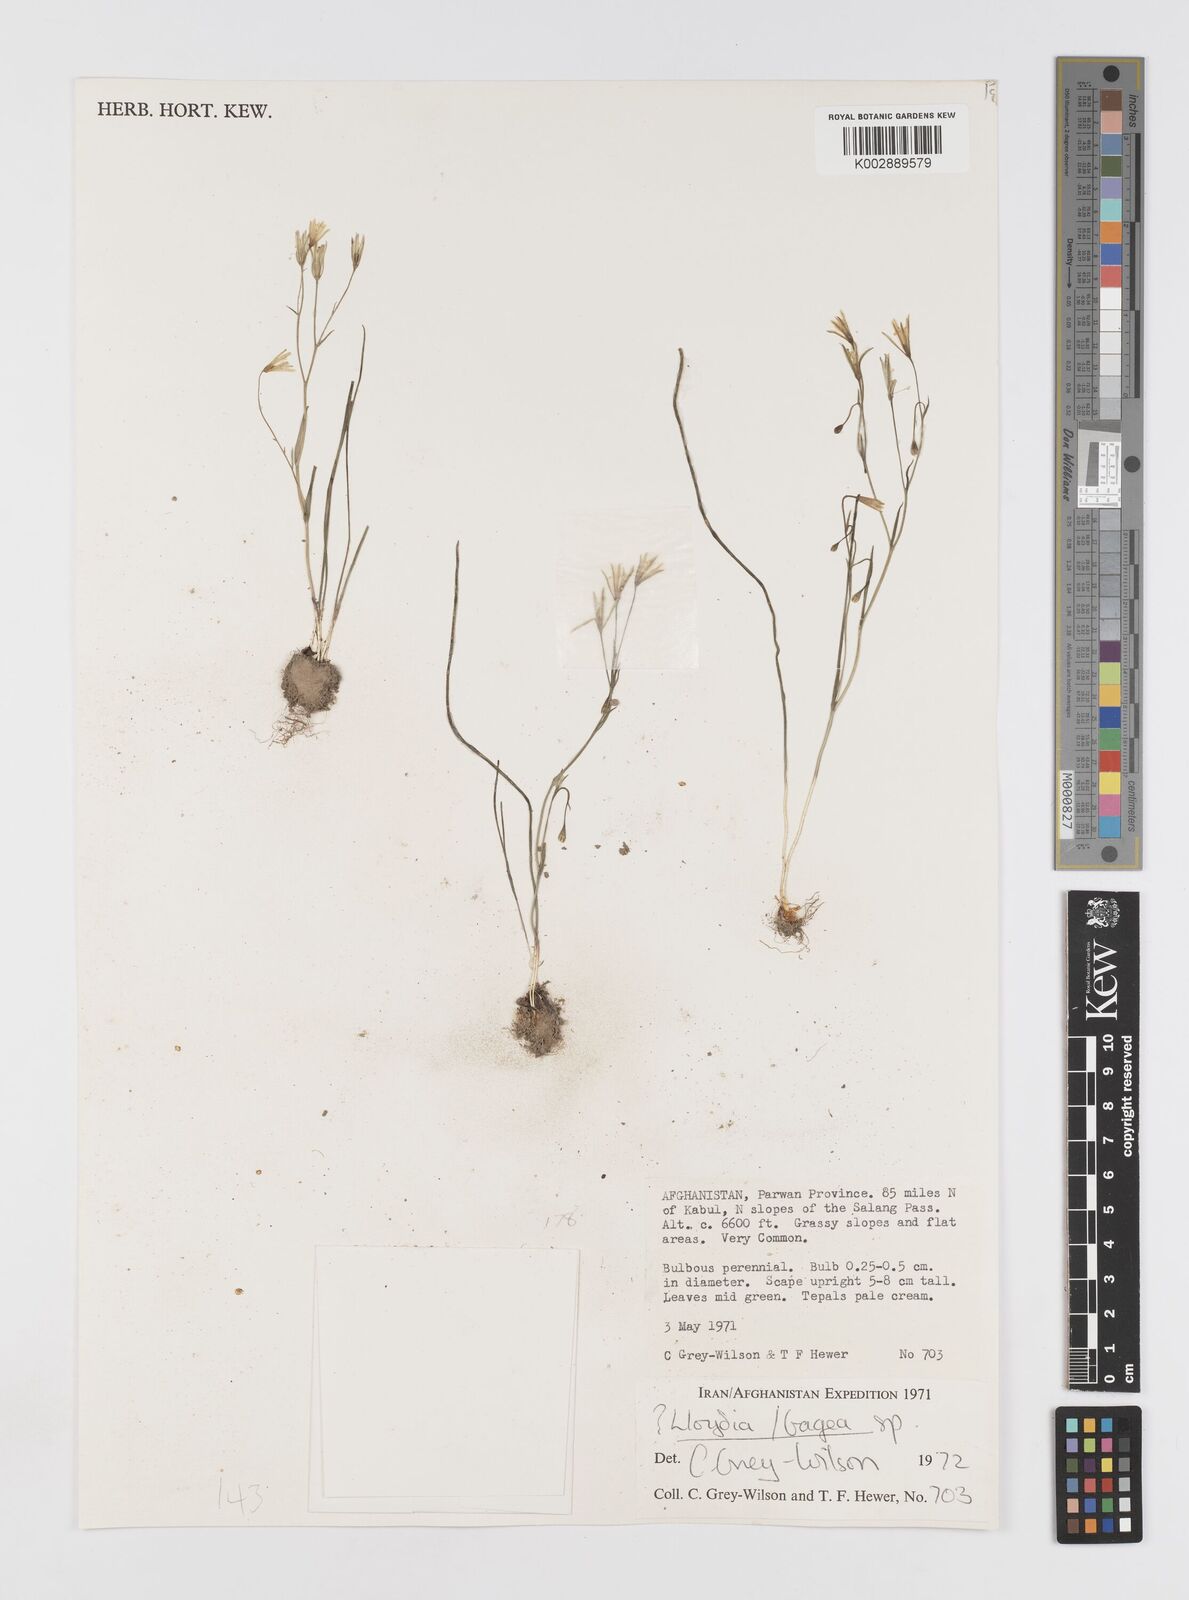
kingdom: Plantae
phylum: Tracheophyta
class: Liliopsida
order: Liliales
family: Liliaceae
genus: Gagea
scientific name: Gagea
